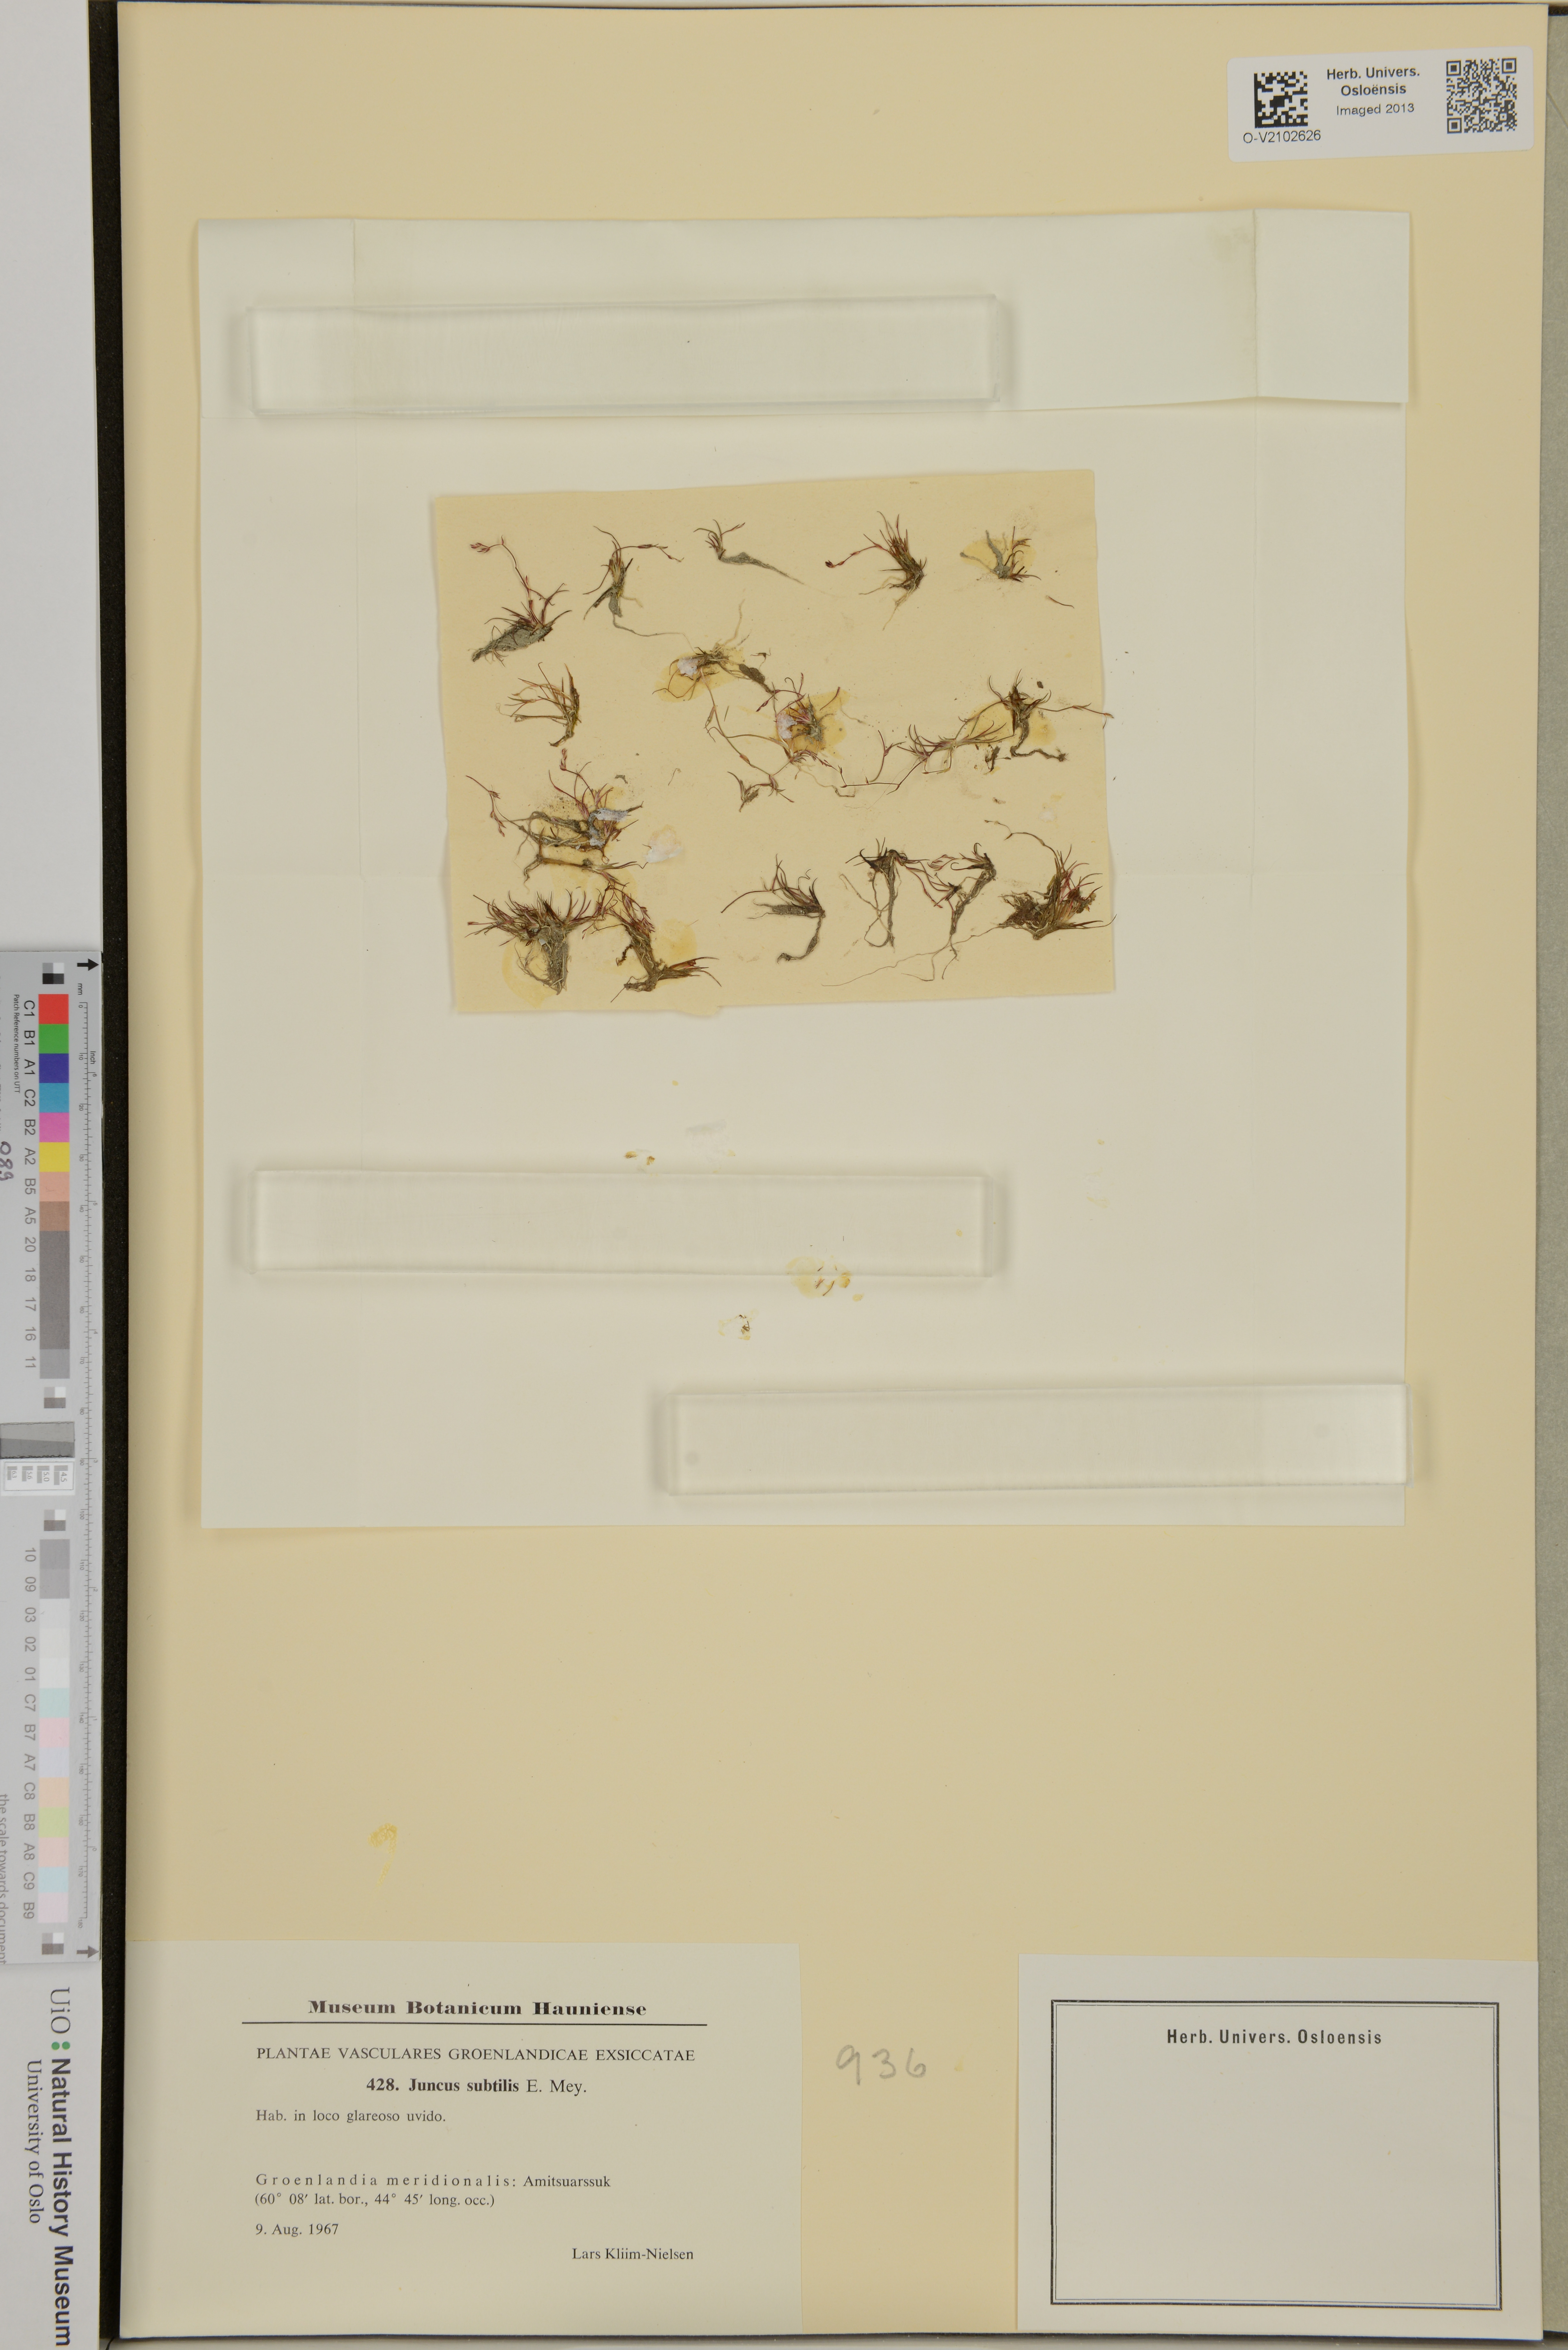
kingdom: Plantae
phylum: Tracheophyta
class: Liliopsida
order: Poales
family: Juncaceae
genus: Juncus
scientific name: Juncus subtilis
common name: Creeping rush
